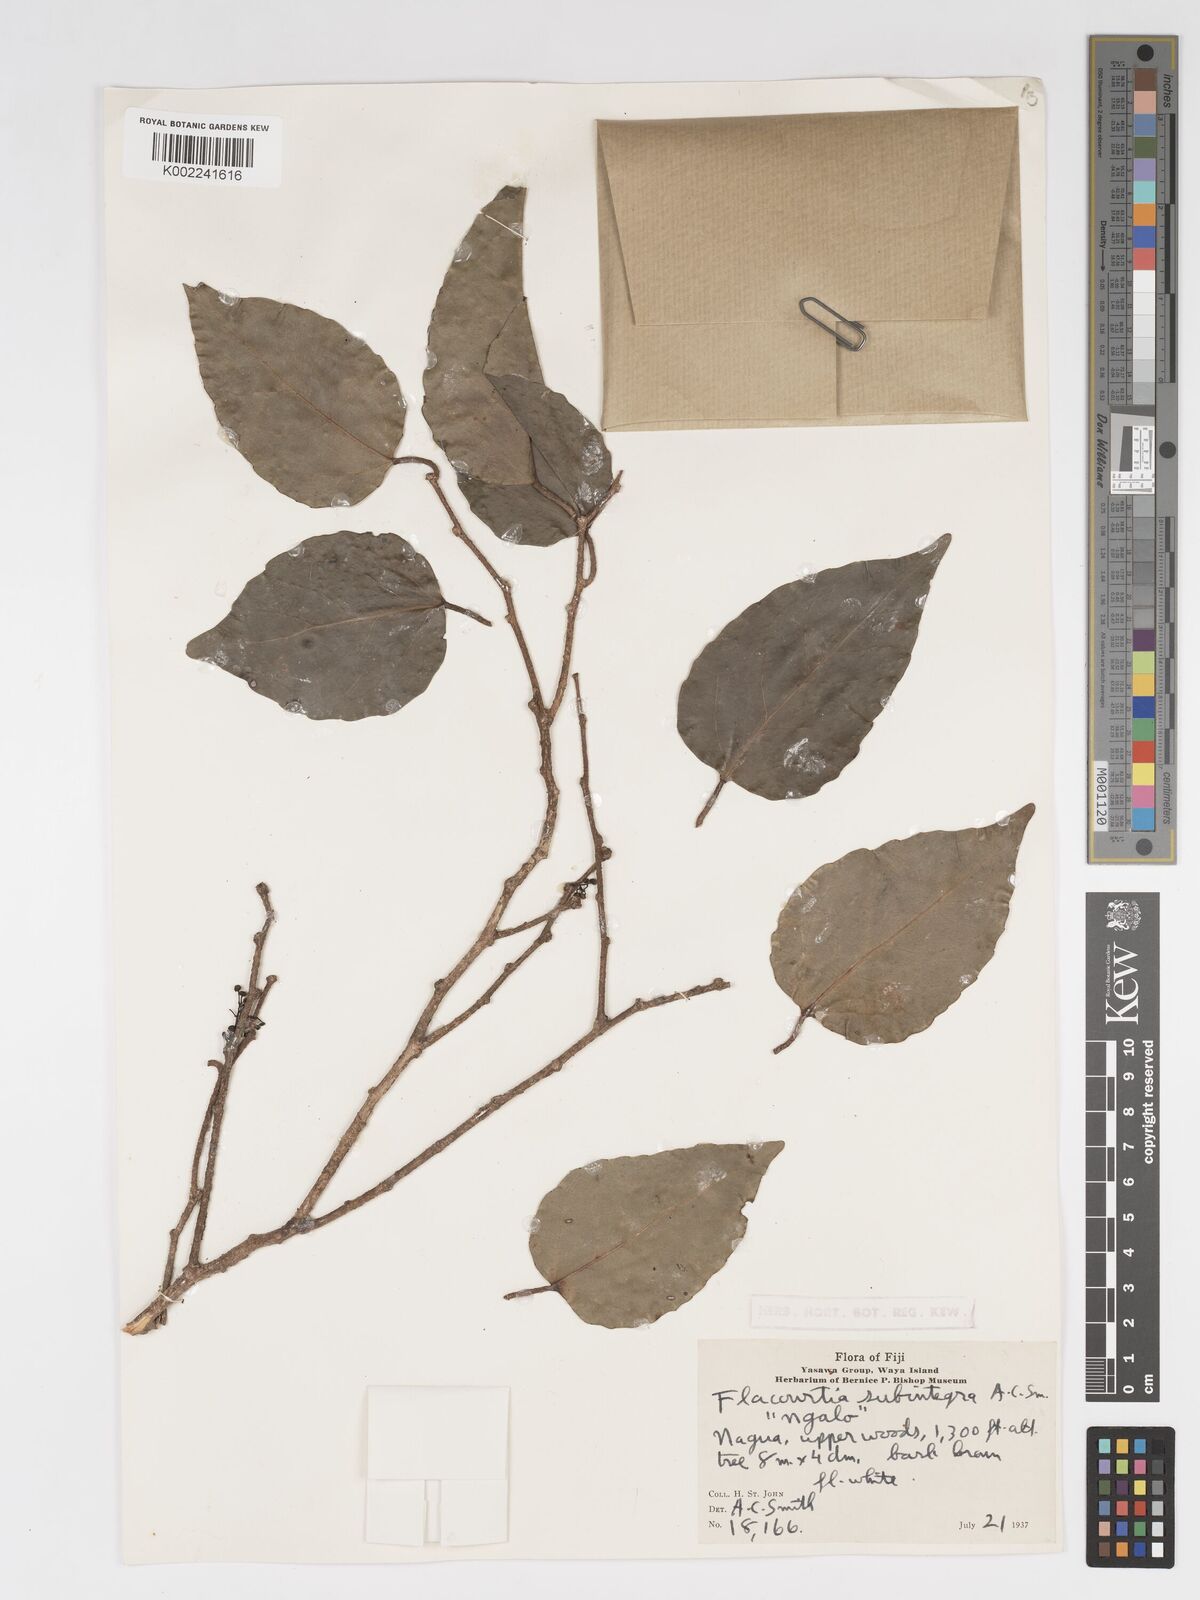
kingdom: Plantae
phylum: Tracheophyta
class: Magnoliopsida
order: Malpighiales
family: Salicaceae
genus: Flacourtia
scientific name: Flacourtia subintegra
